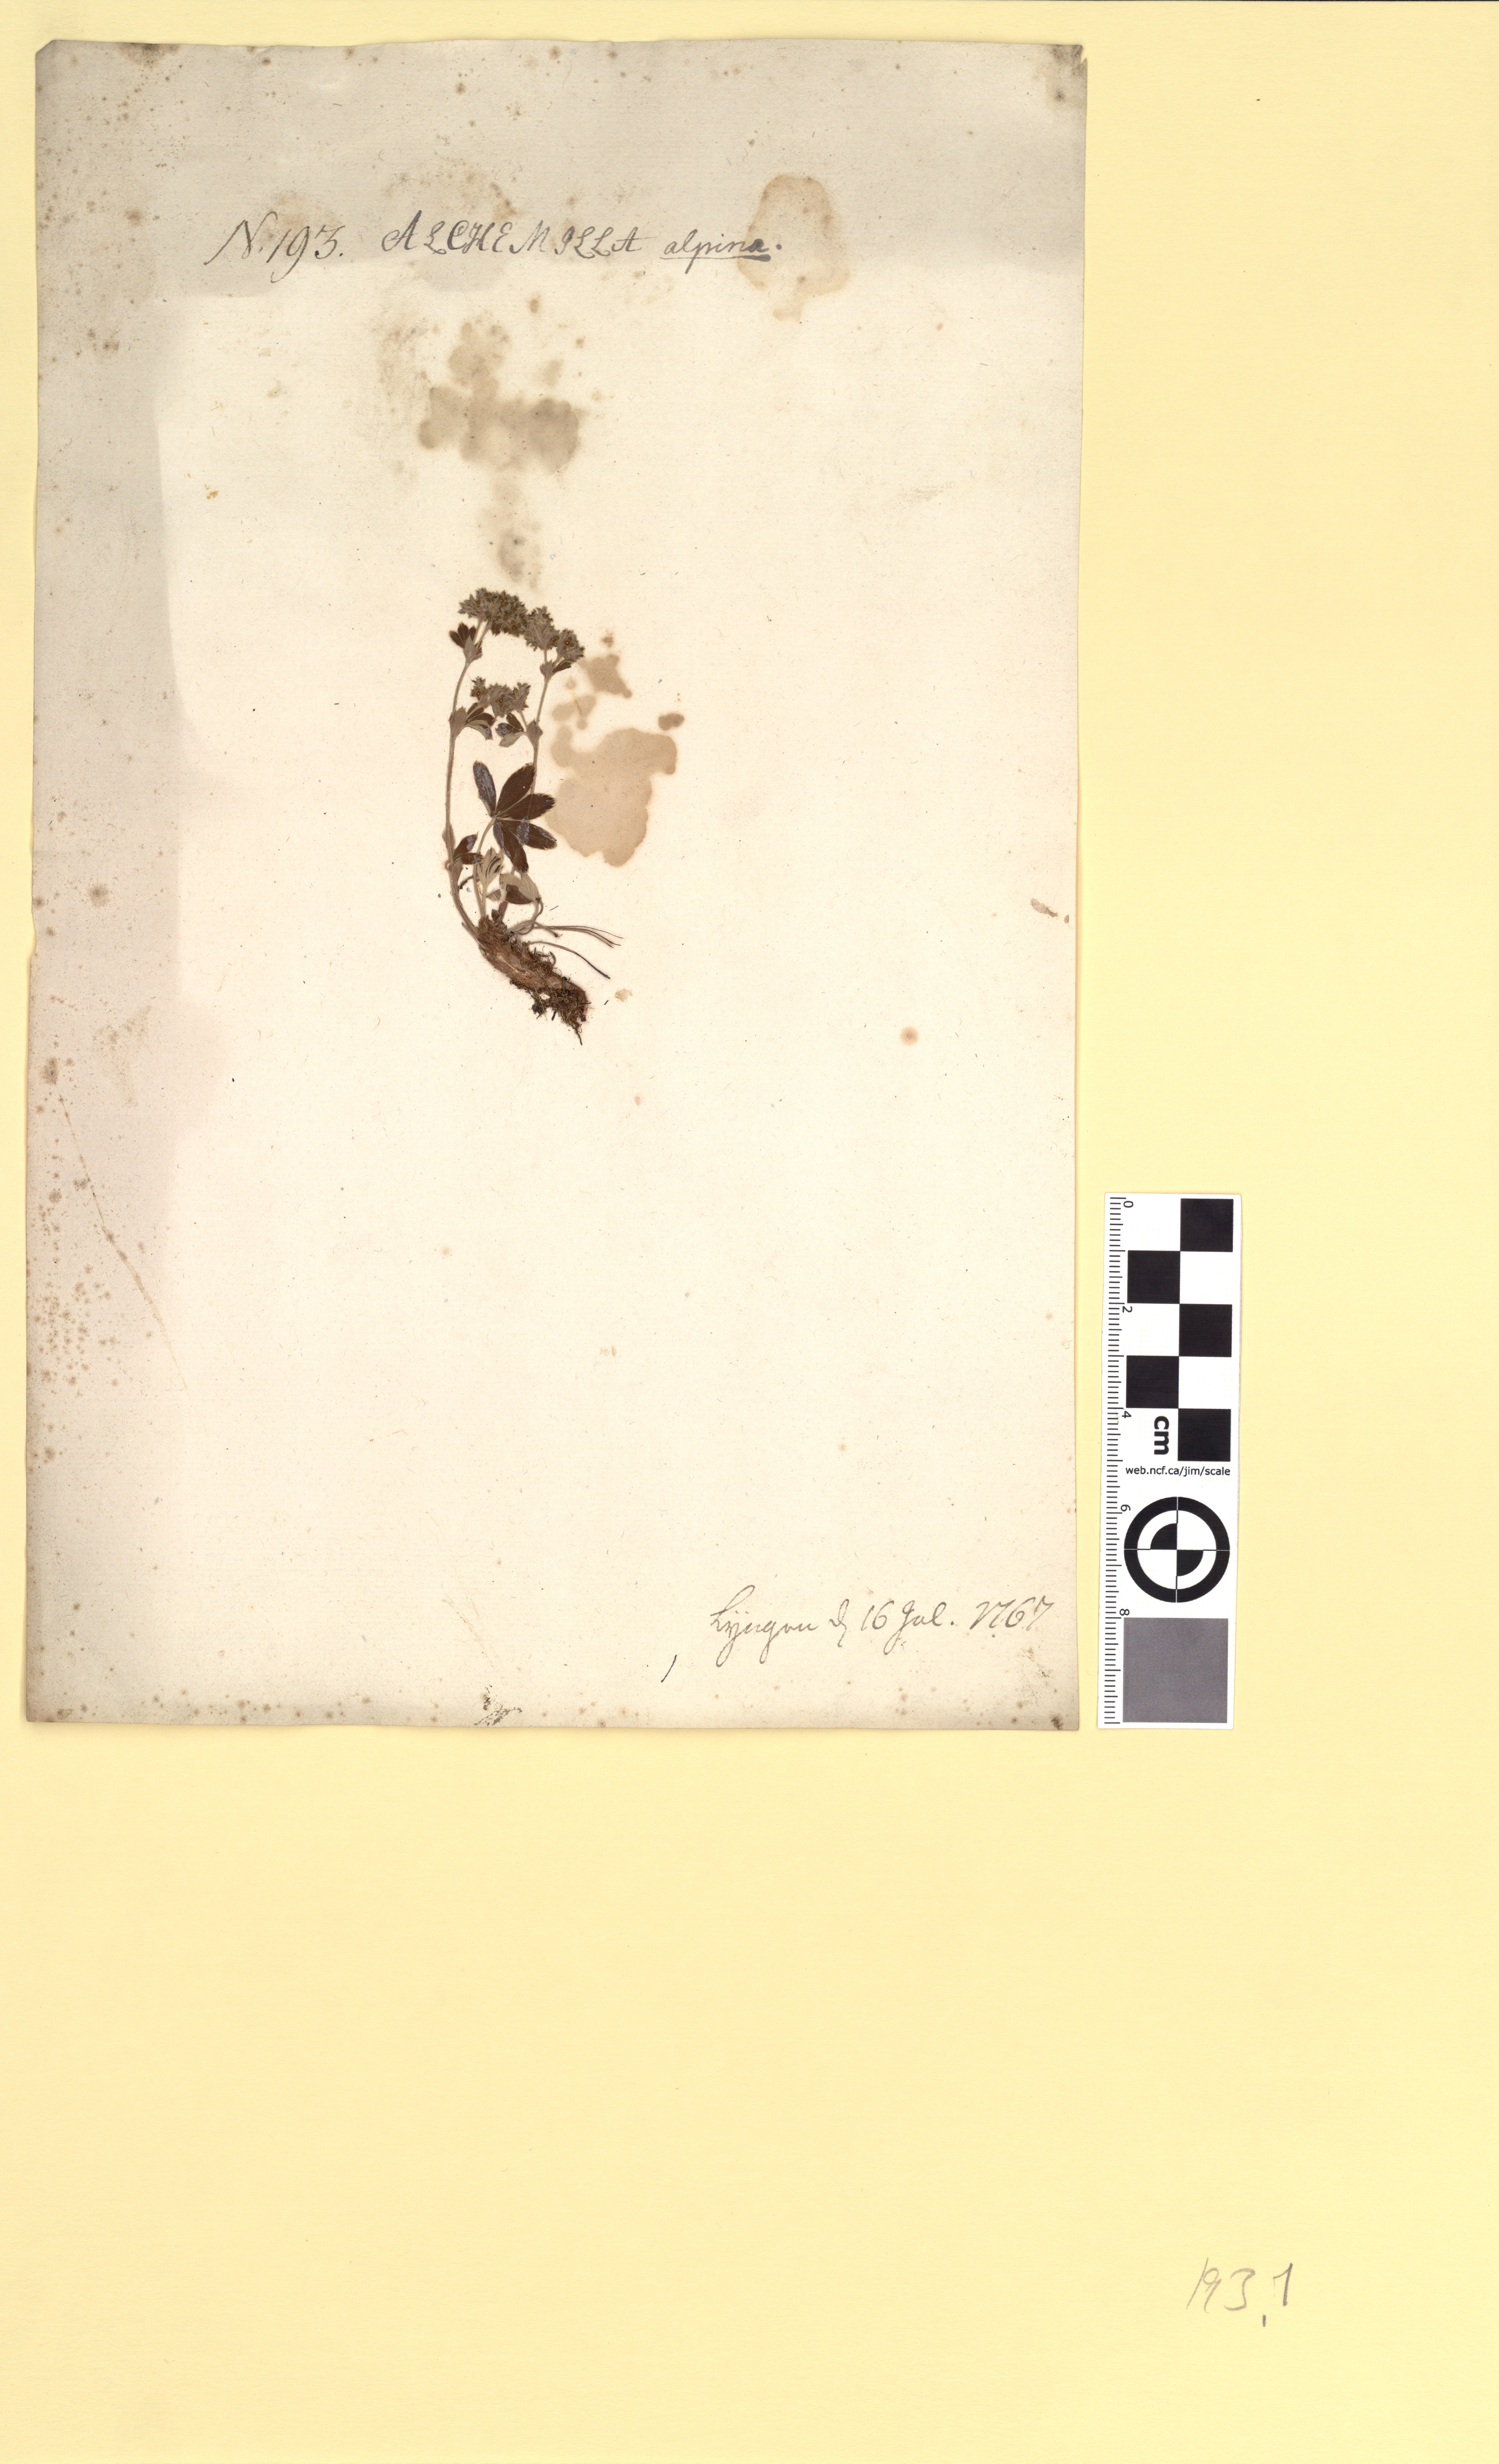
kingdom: Plantae
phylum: Tracheophyta
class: Magnoliopsida
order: Rosales
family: Rosaceae
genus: Alchemilla
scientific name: Alchemilla alpina
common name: Alpine lady's-mantle
